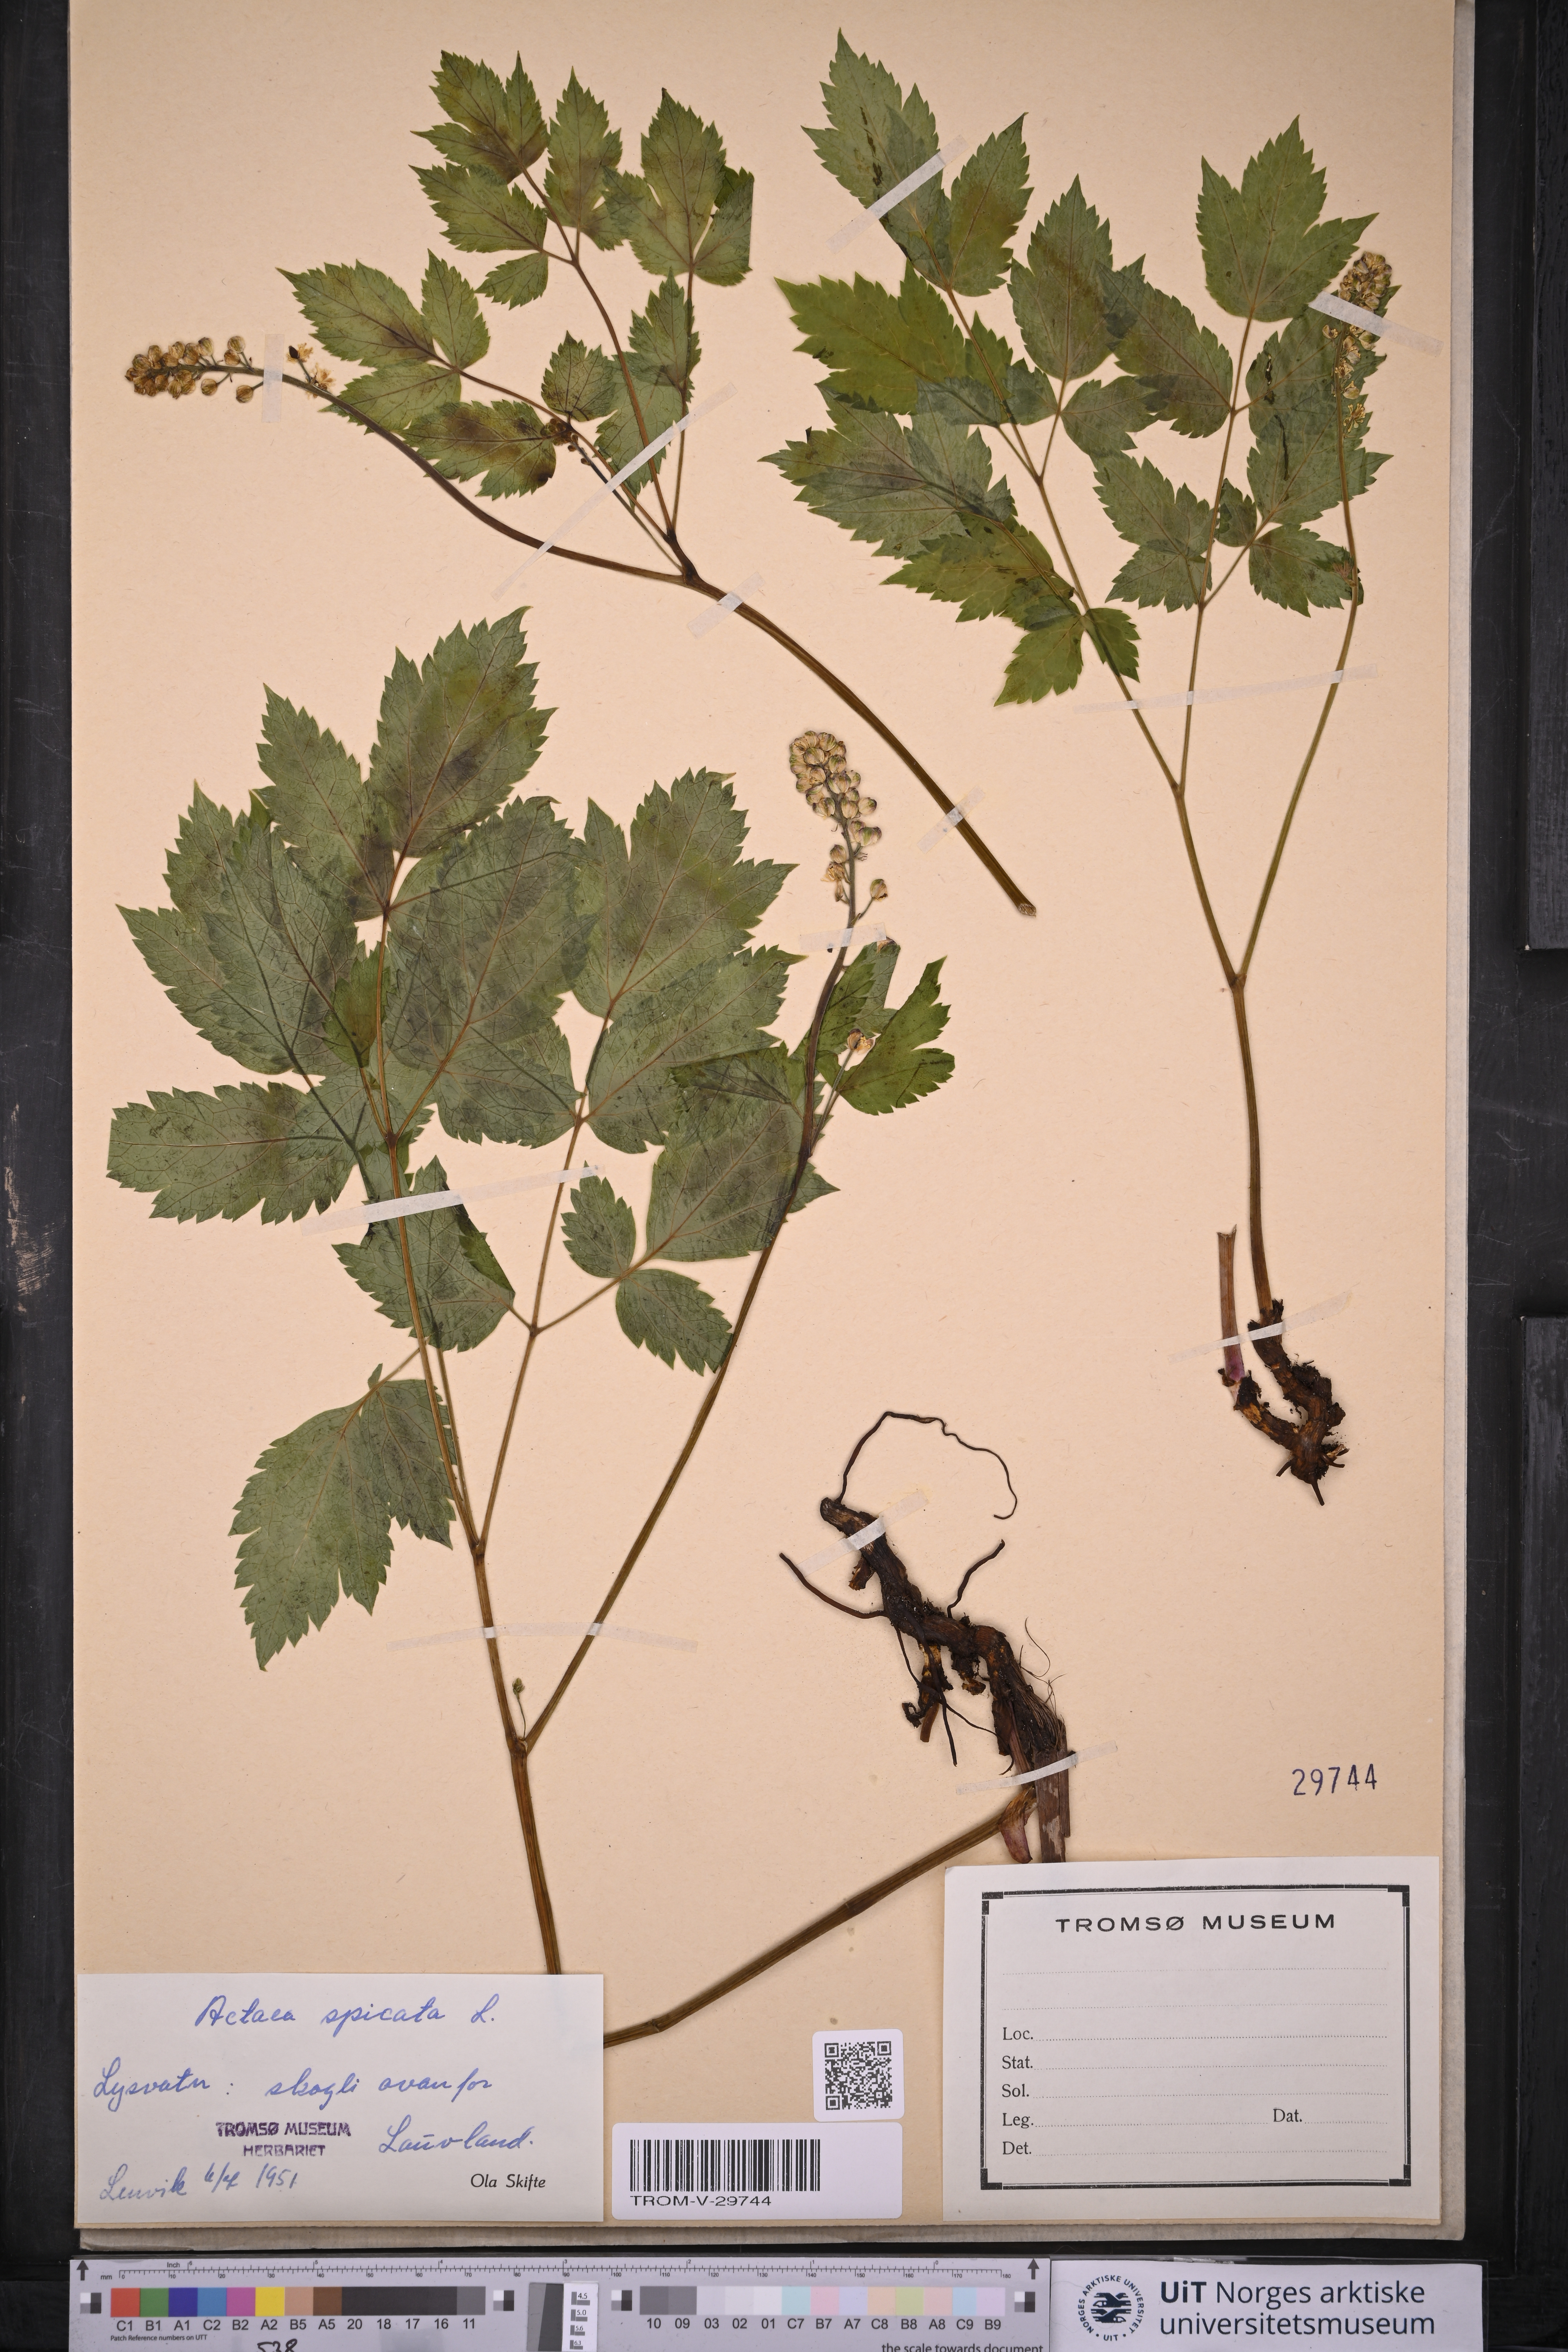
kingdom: Plantae
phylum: Tracheophyta
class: Magnoliopsida
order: Ranunculales
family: Ranunculaceae
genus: Actaea
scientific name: Actaea spicata
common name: Baneberry
